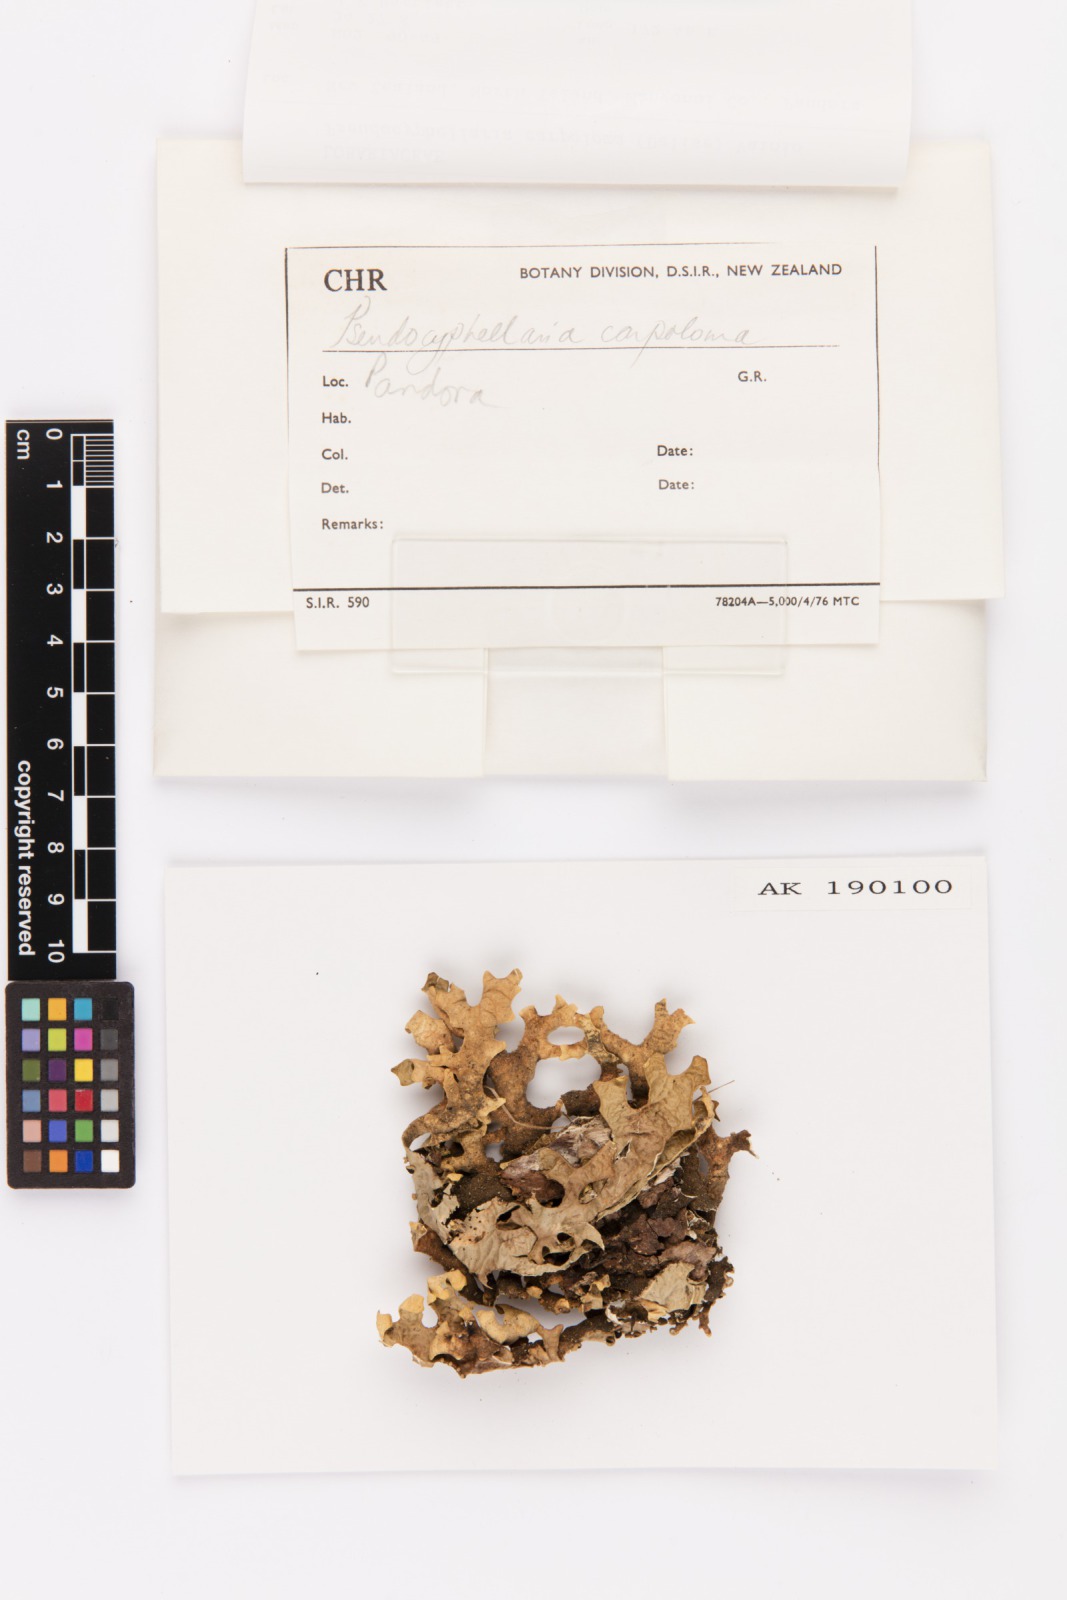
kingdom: Fungi
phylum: Ascomycota
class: Lecanoromycetes
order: Peltigerales
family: Lobariaceae
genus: Pseudocyphellaria
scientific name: Pseudocyphellaria carpoloma
